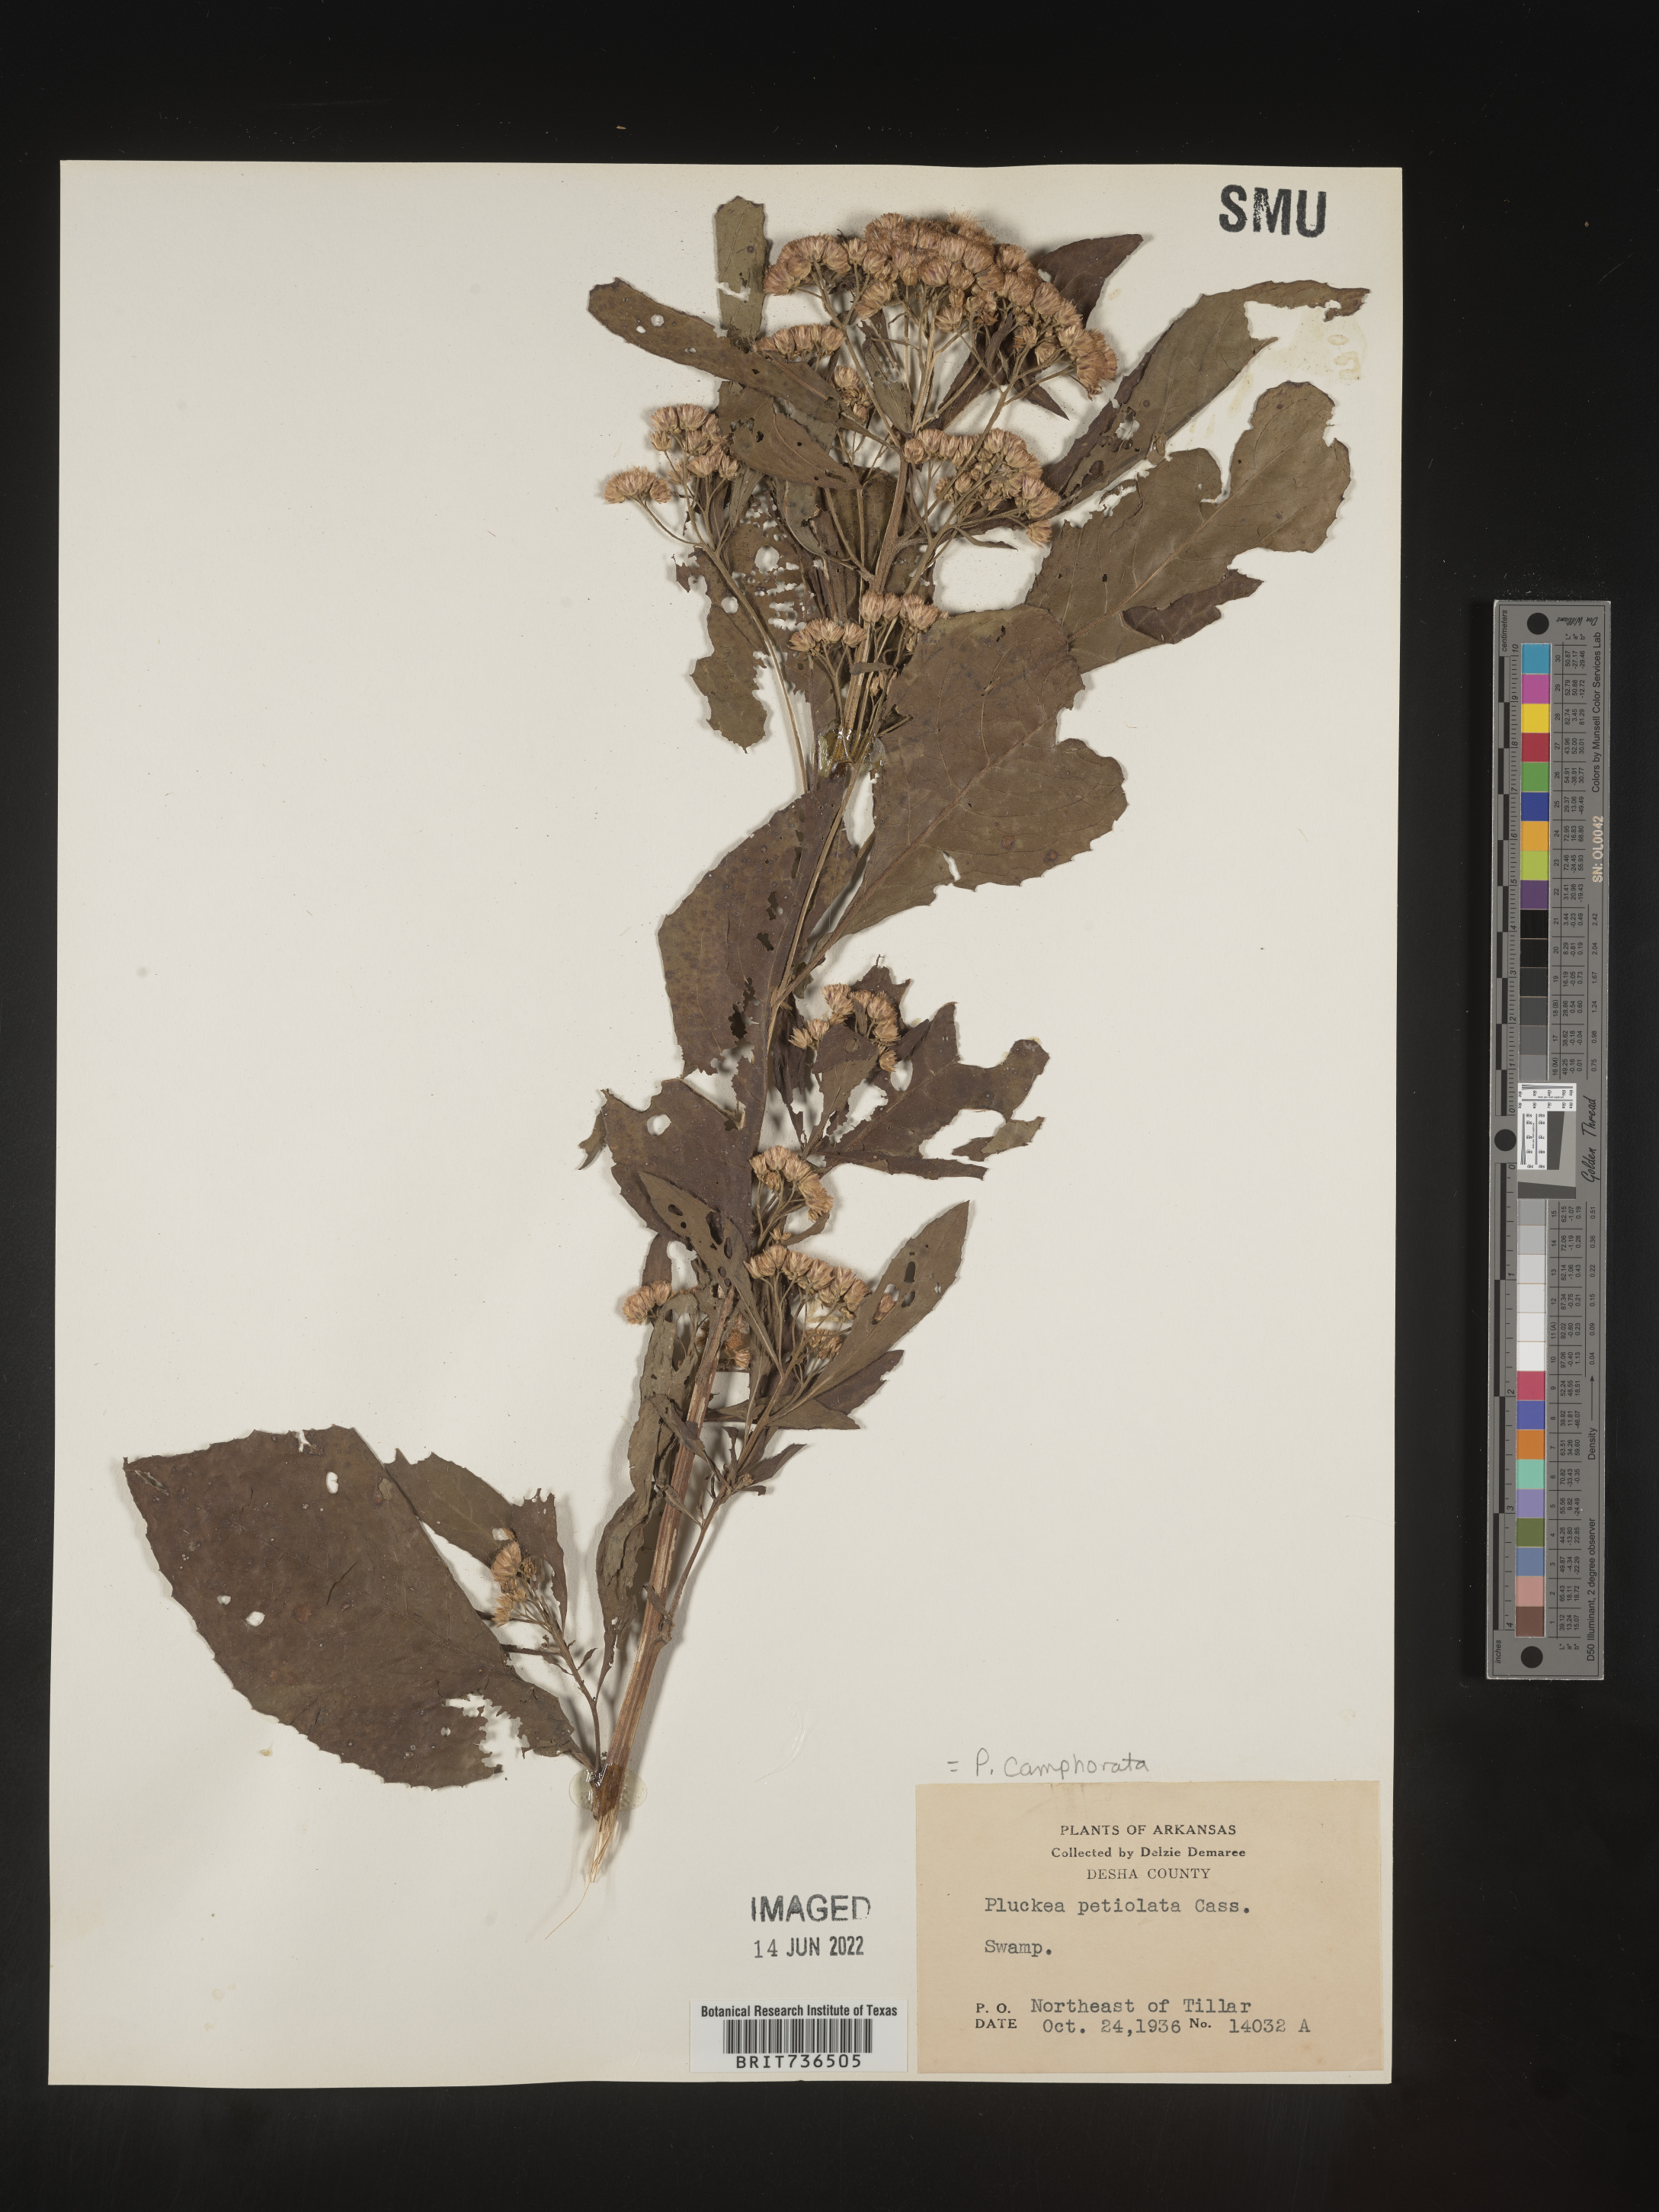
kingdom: Plantae
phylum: Tracheophyta
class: Magnoliopsida
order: Asterales
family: Asteraceae
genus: Pluchea
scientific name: Pluchea camphorata
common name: Camphor pluchea
